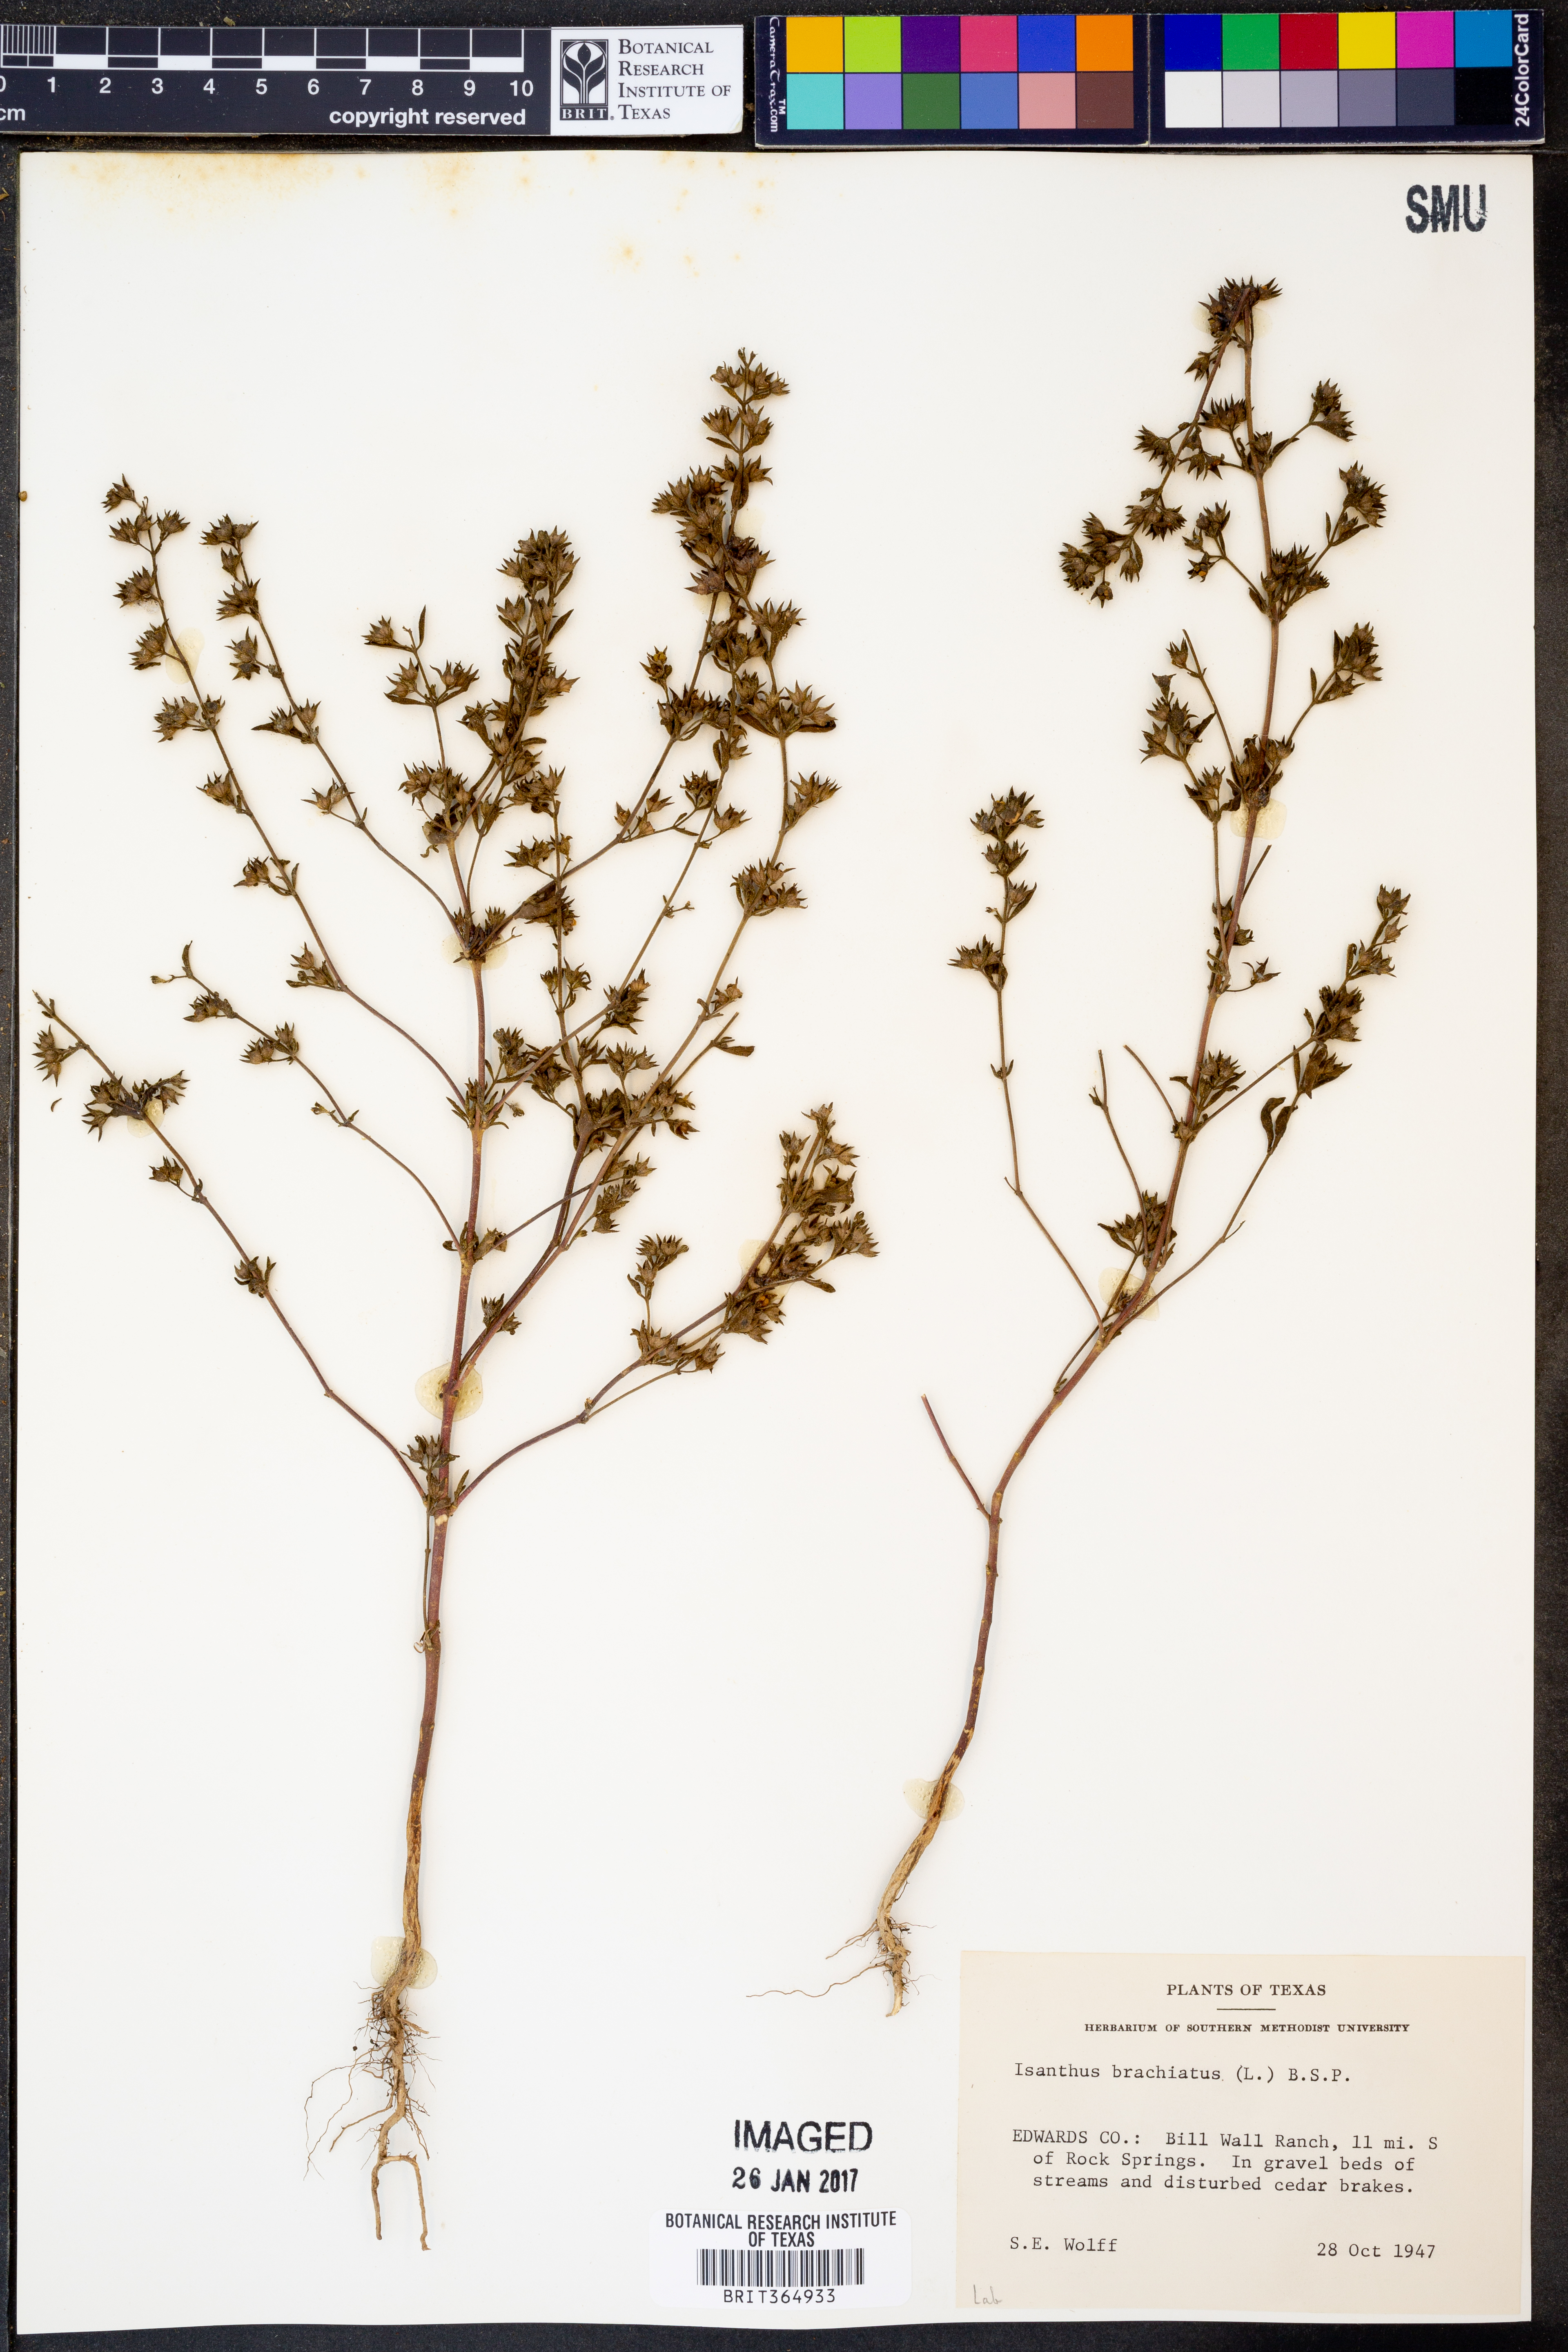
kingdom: Plantae
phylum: Tracheophyta
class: Magnoliopsida
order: Lamiales
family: Lamiaceae
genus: Trichostema
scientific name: Trichostema brachiatum
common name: False pennyroyal
